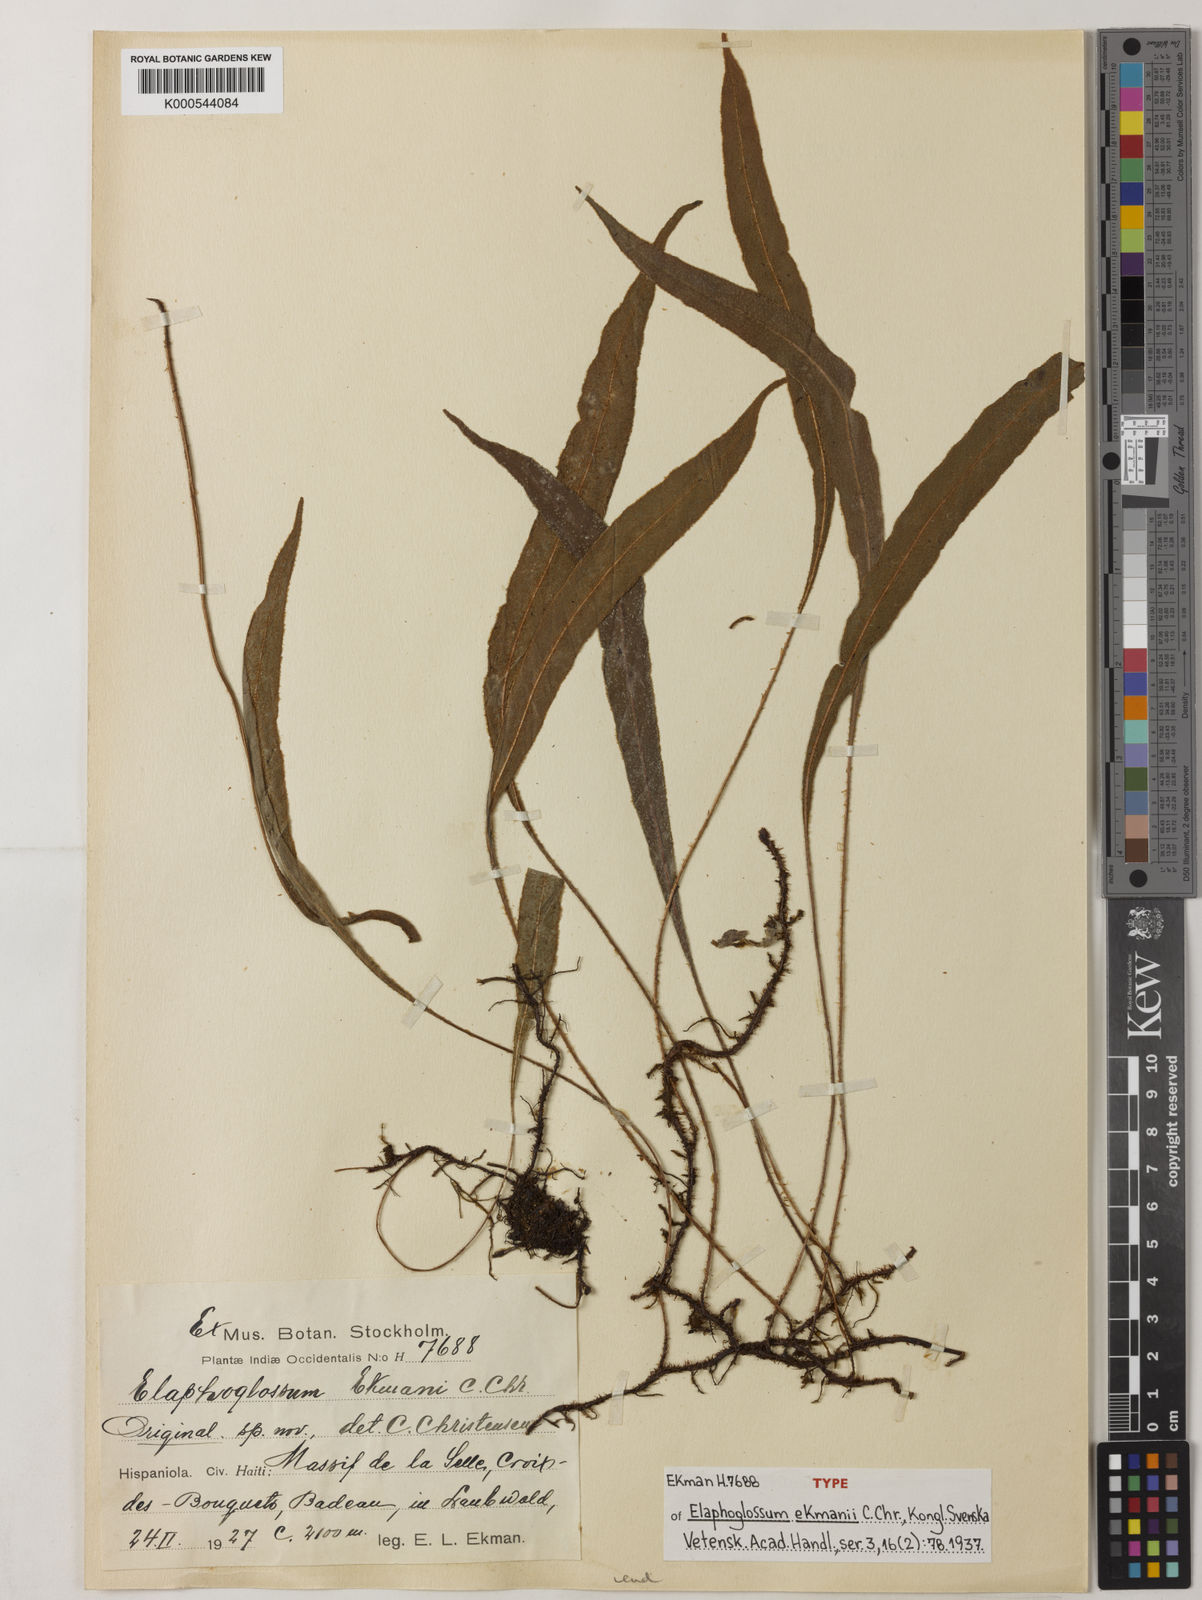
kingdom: Plantae
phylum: Tracheophyta
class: Polypodiopsida
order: Polypodiales
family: Dryopteridaceae
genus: Elaphoglossum
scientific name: Elaphoglossum ekmanii
